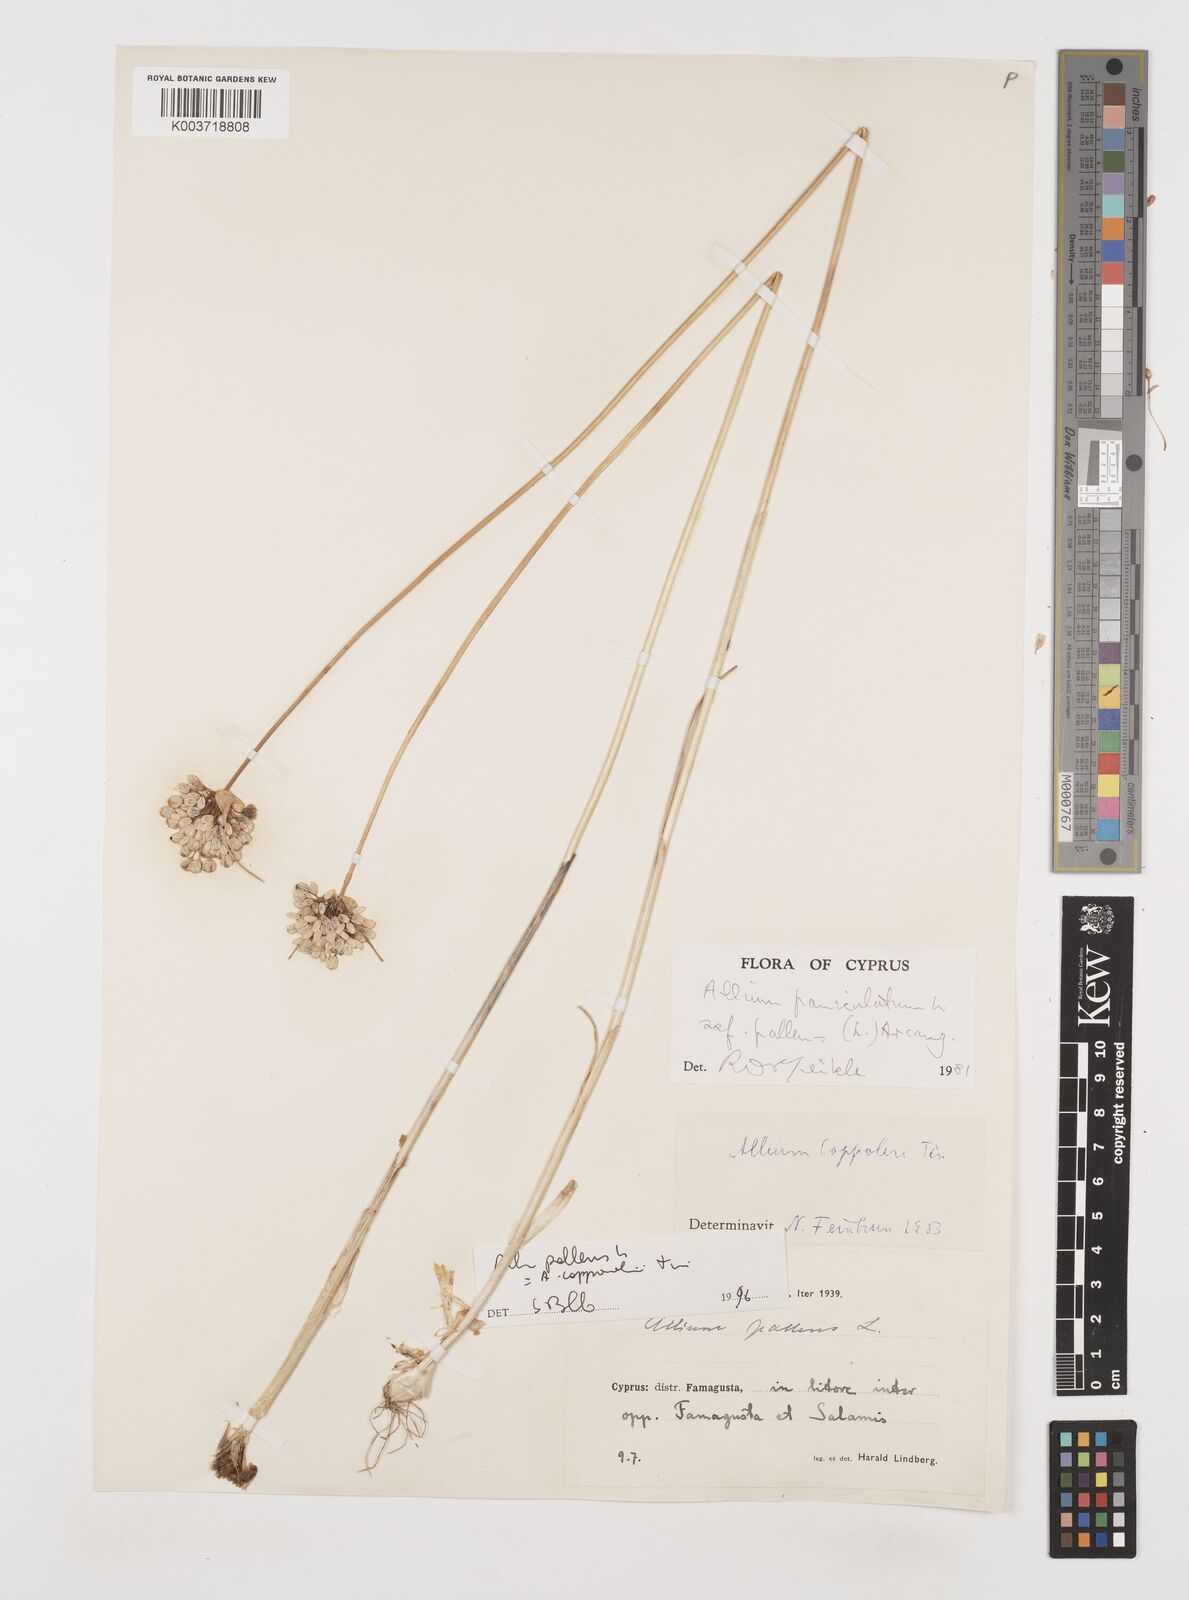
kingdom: Plantae
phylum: Tracheophyta
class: Liliopsida
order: Asparagales
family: Amaryllidaceae
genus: Allium
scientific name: Allium paniculatum
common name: Pale garlic
